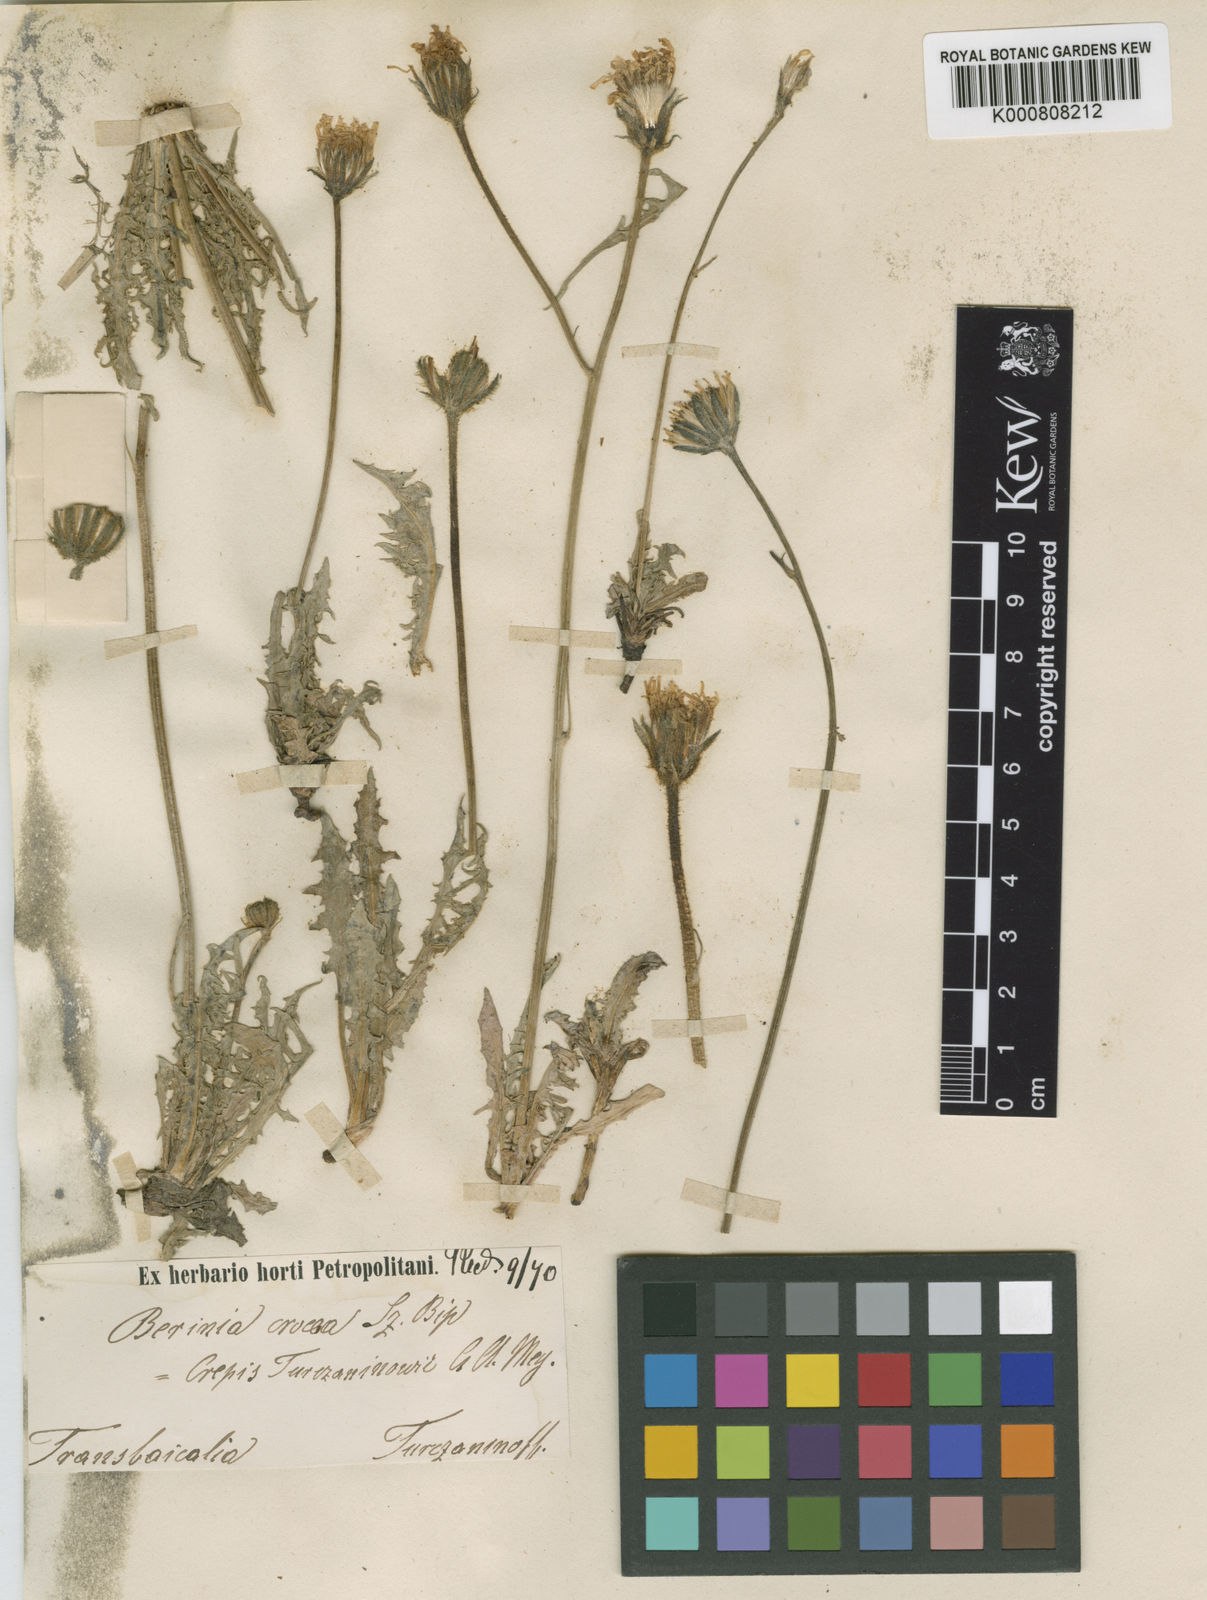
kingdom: Plantae
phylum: Tracheophyta
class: Magnoliopsida
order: Asterales
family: Asteraceae
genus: Crepis
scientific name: Crepis crocea
